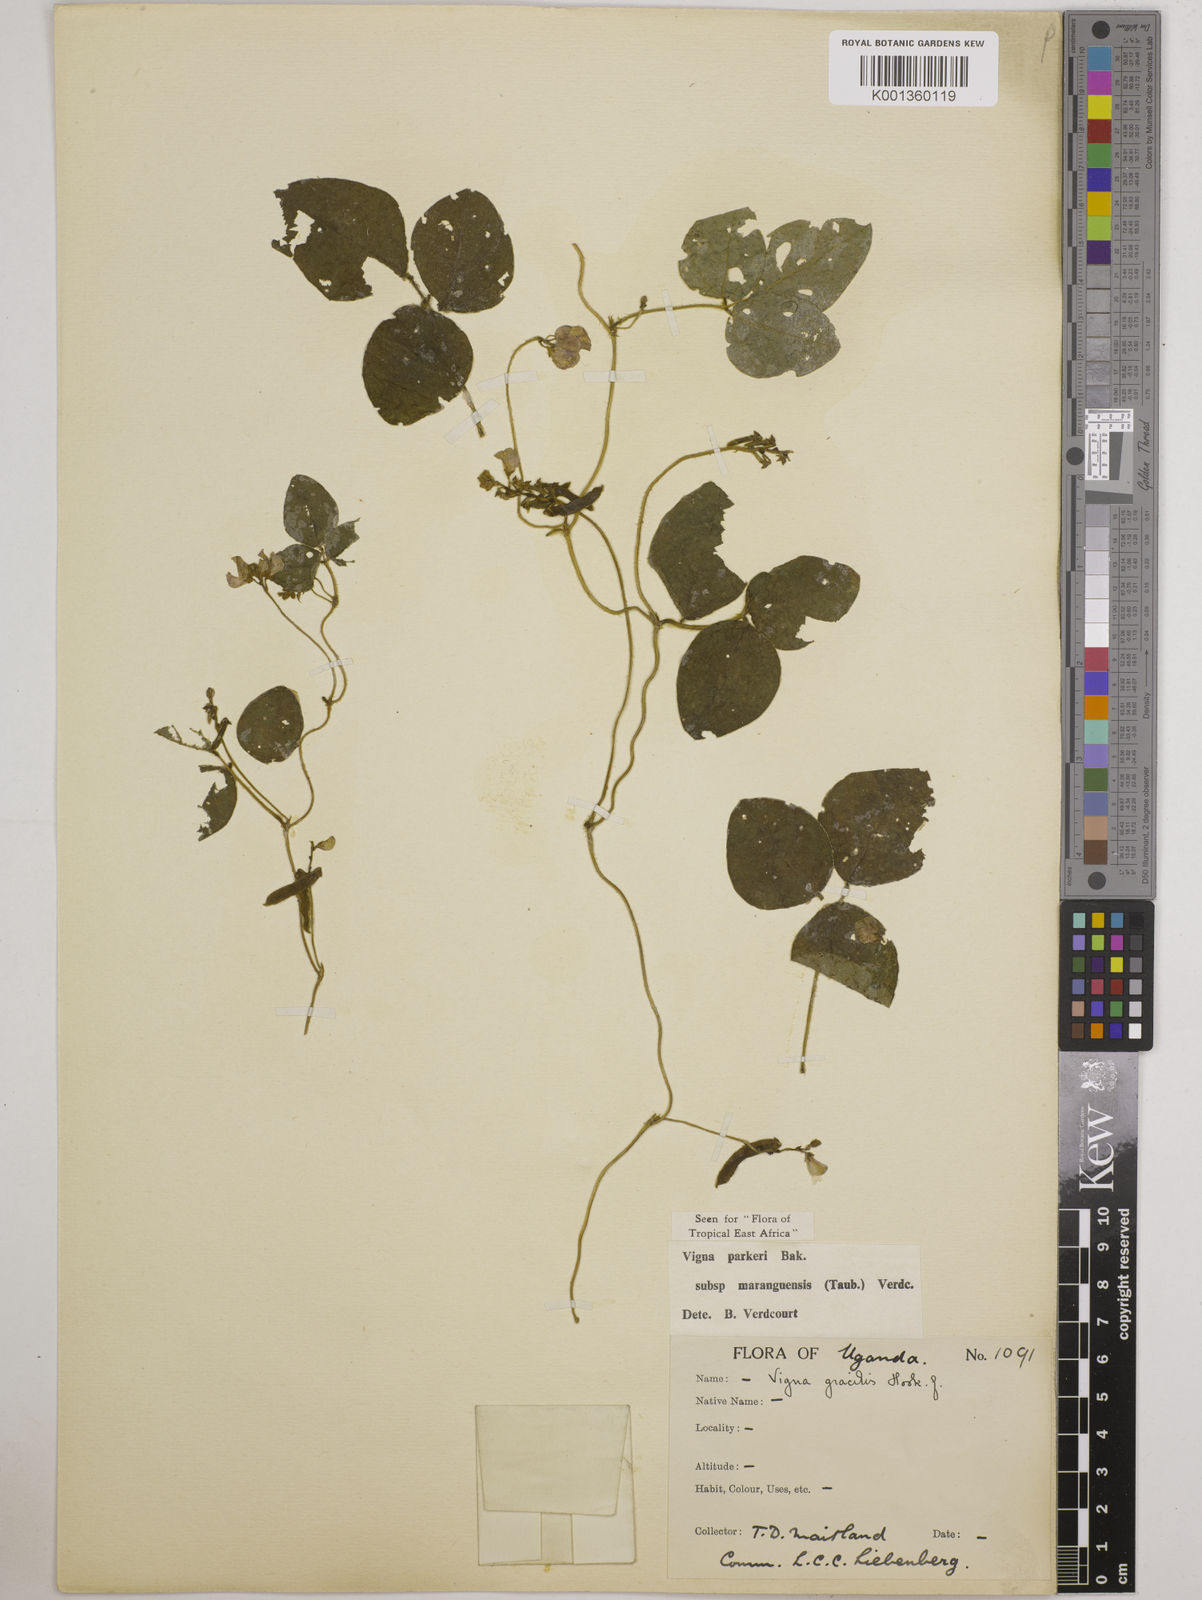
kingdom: Plantae
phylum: Tracheophyta
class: Magnoliopsida
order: Fabales
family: Fabaceae
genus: Vigna
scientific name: Vigna
